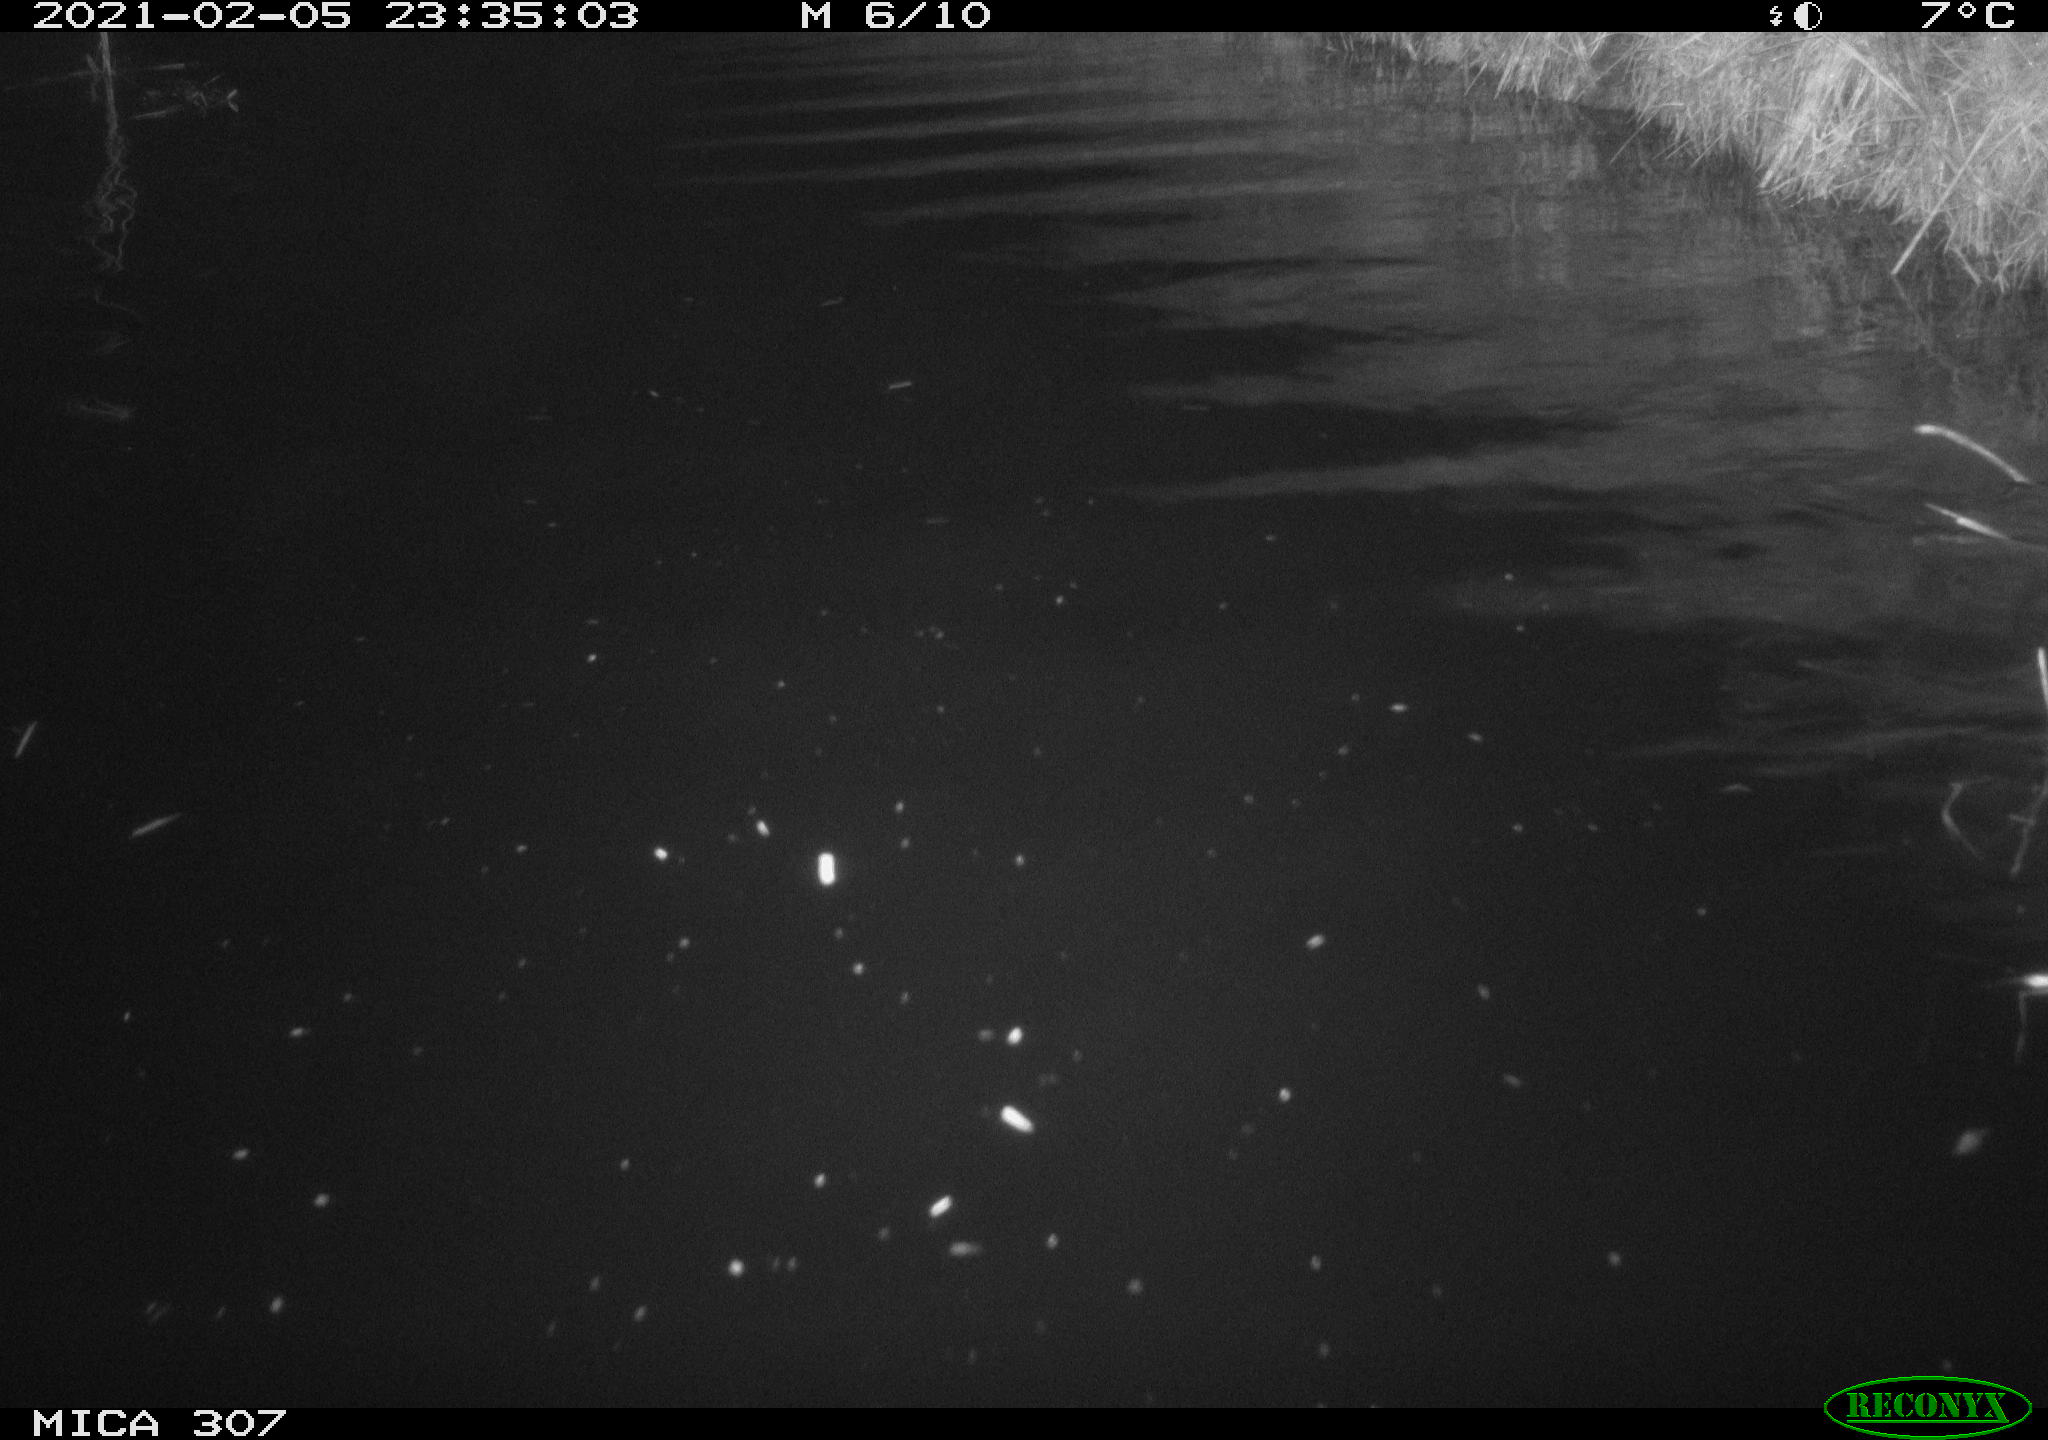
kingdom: Animalia
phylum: Chordata
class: Mammalia
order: Rodentia
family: Cricetidae
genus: Ondatra
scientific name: Ondatra zibethicus
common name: Muskrat
